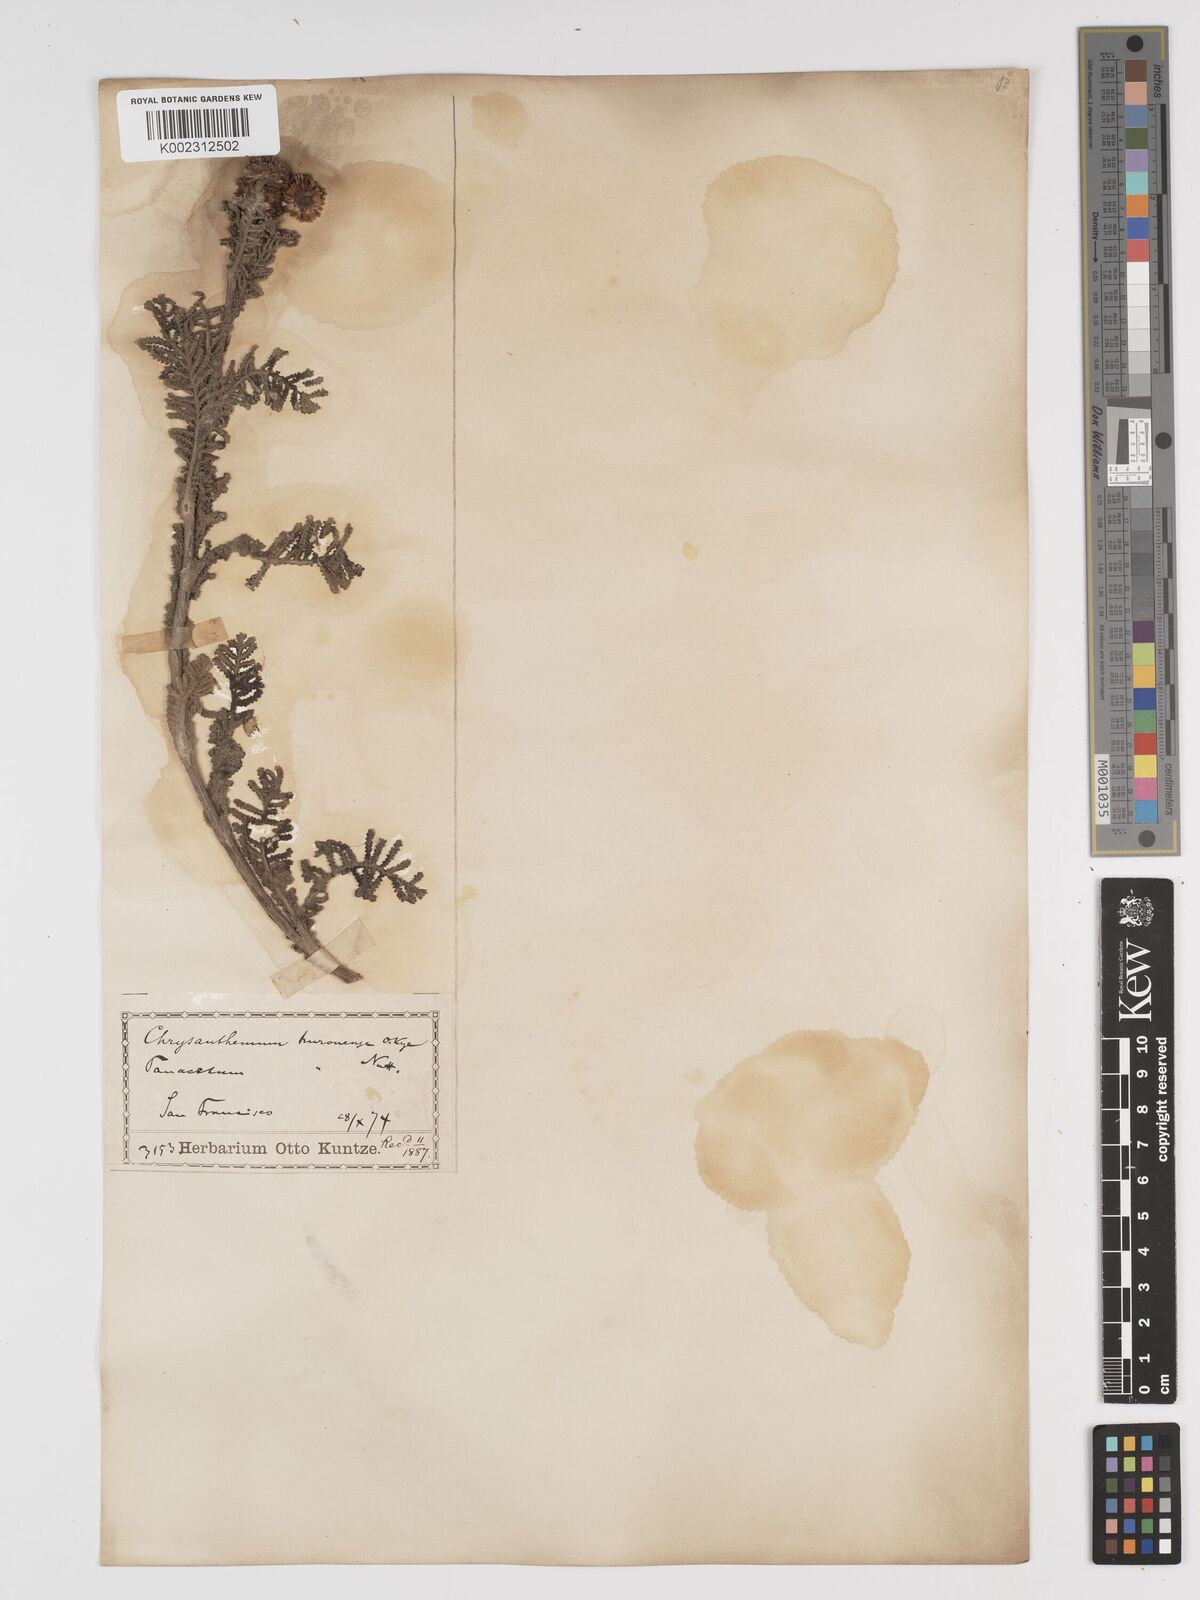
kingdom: Plantae
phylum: Tracheophyta
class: Magnoliopsida
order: Asterales
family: Asteraceae
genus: Tanacetum
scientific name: Tanacetum bipinnatum
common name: Dwarf tansy
